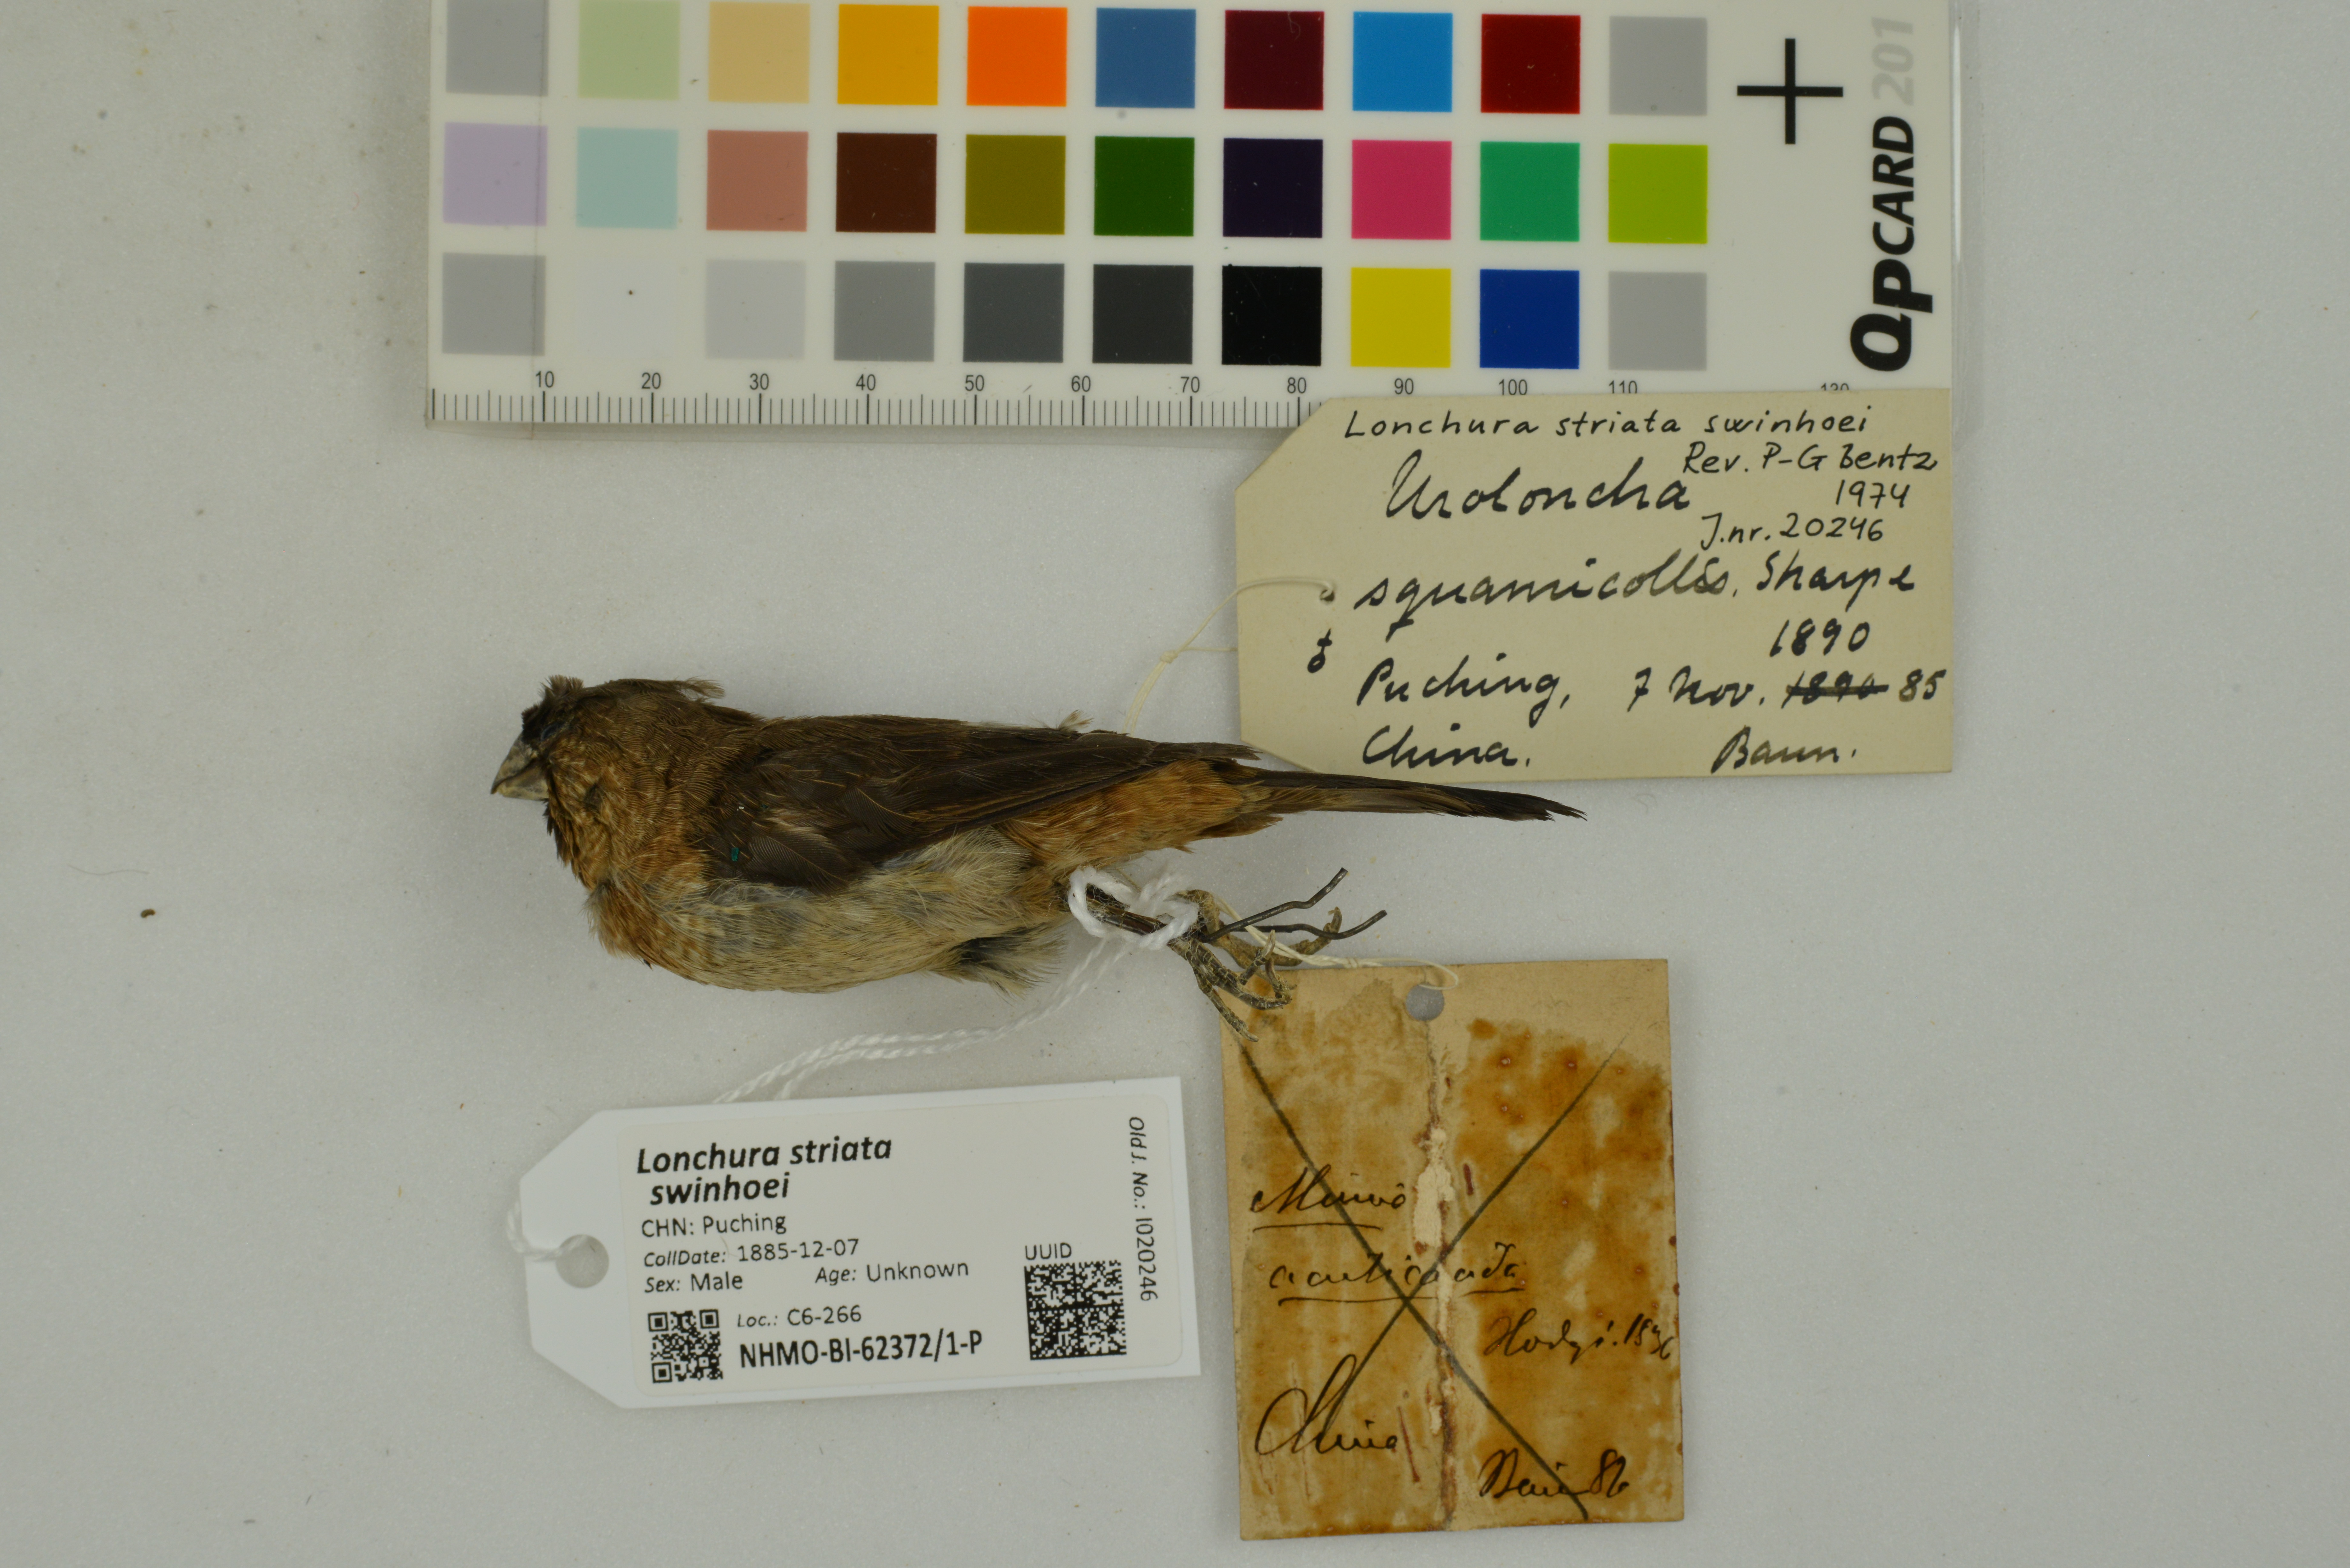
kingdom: Animalia
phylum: Chordata
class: Aves
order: Passeriformes
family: Estrildidae
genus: Lonchura
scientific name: Lonchura striata
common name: White-rumped munia
